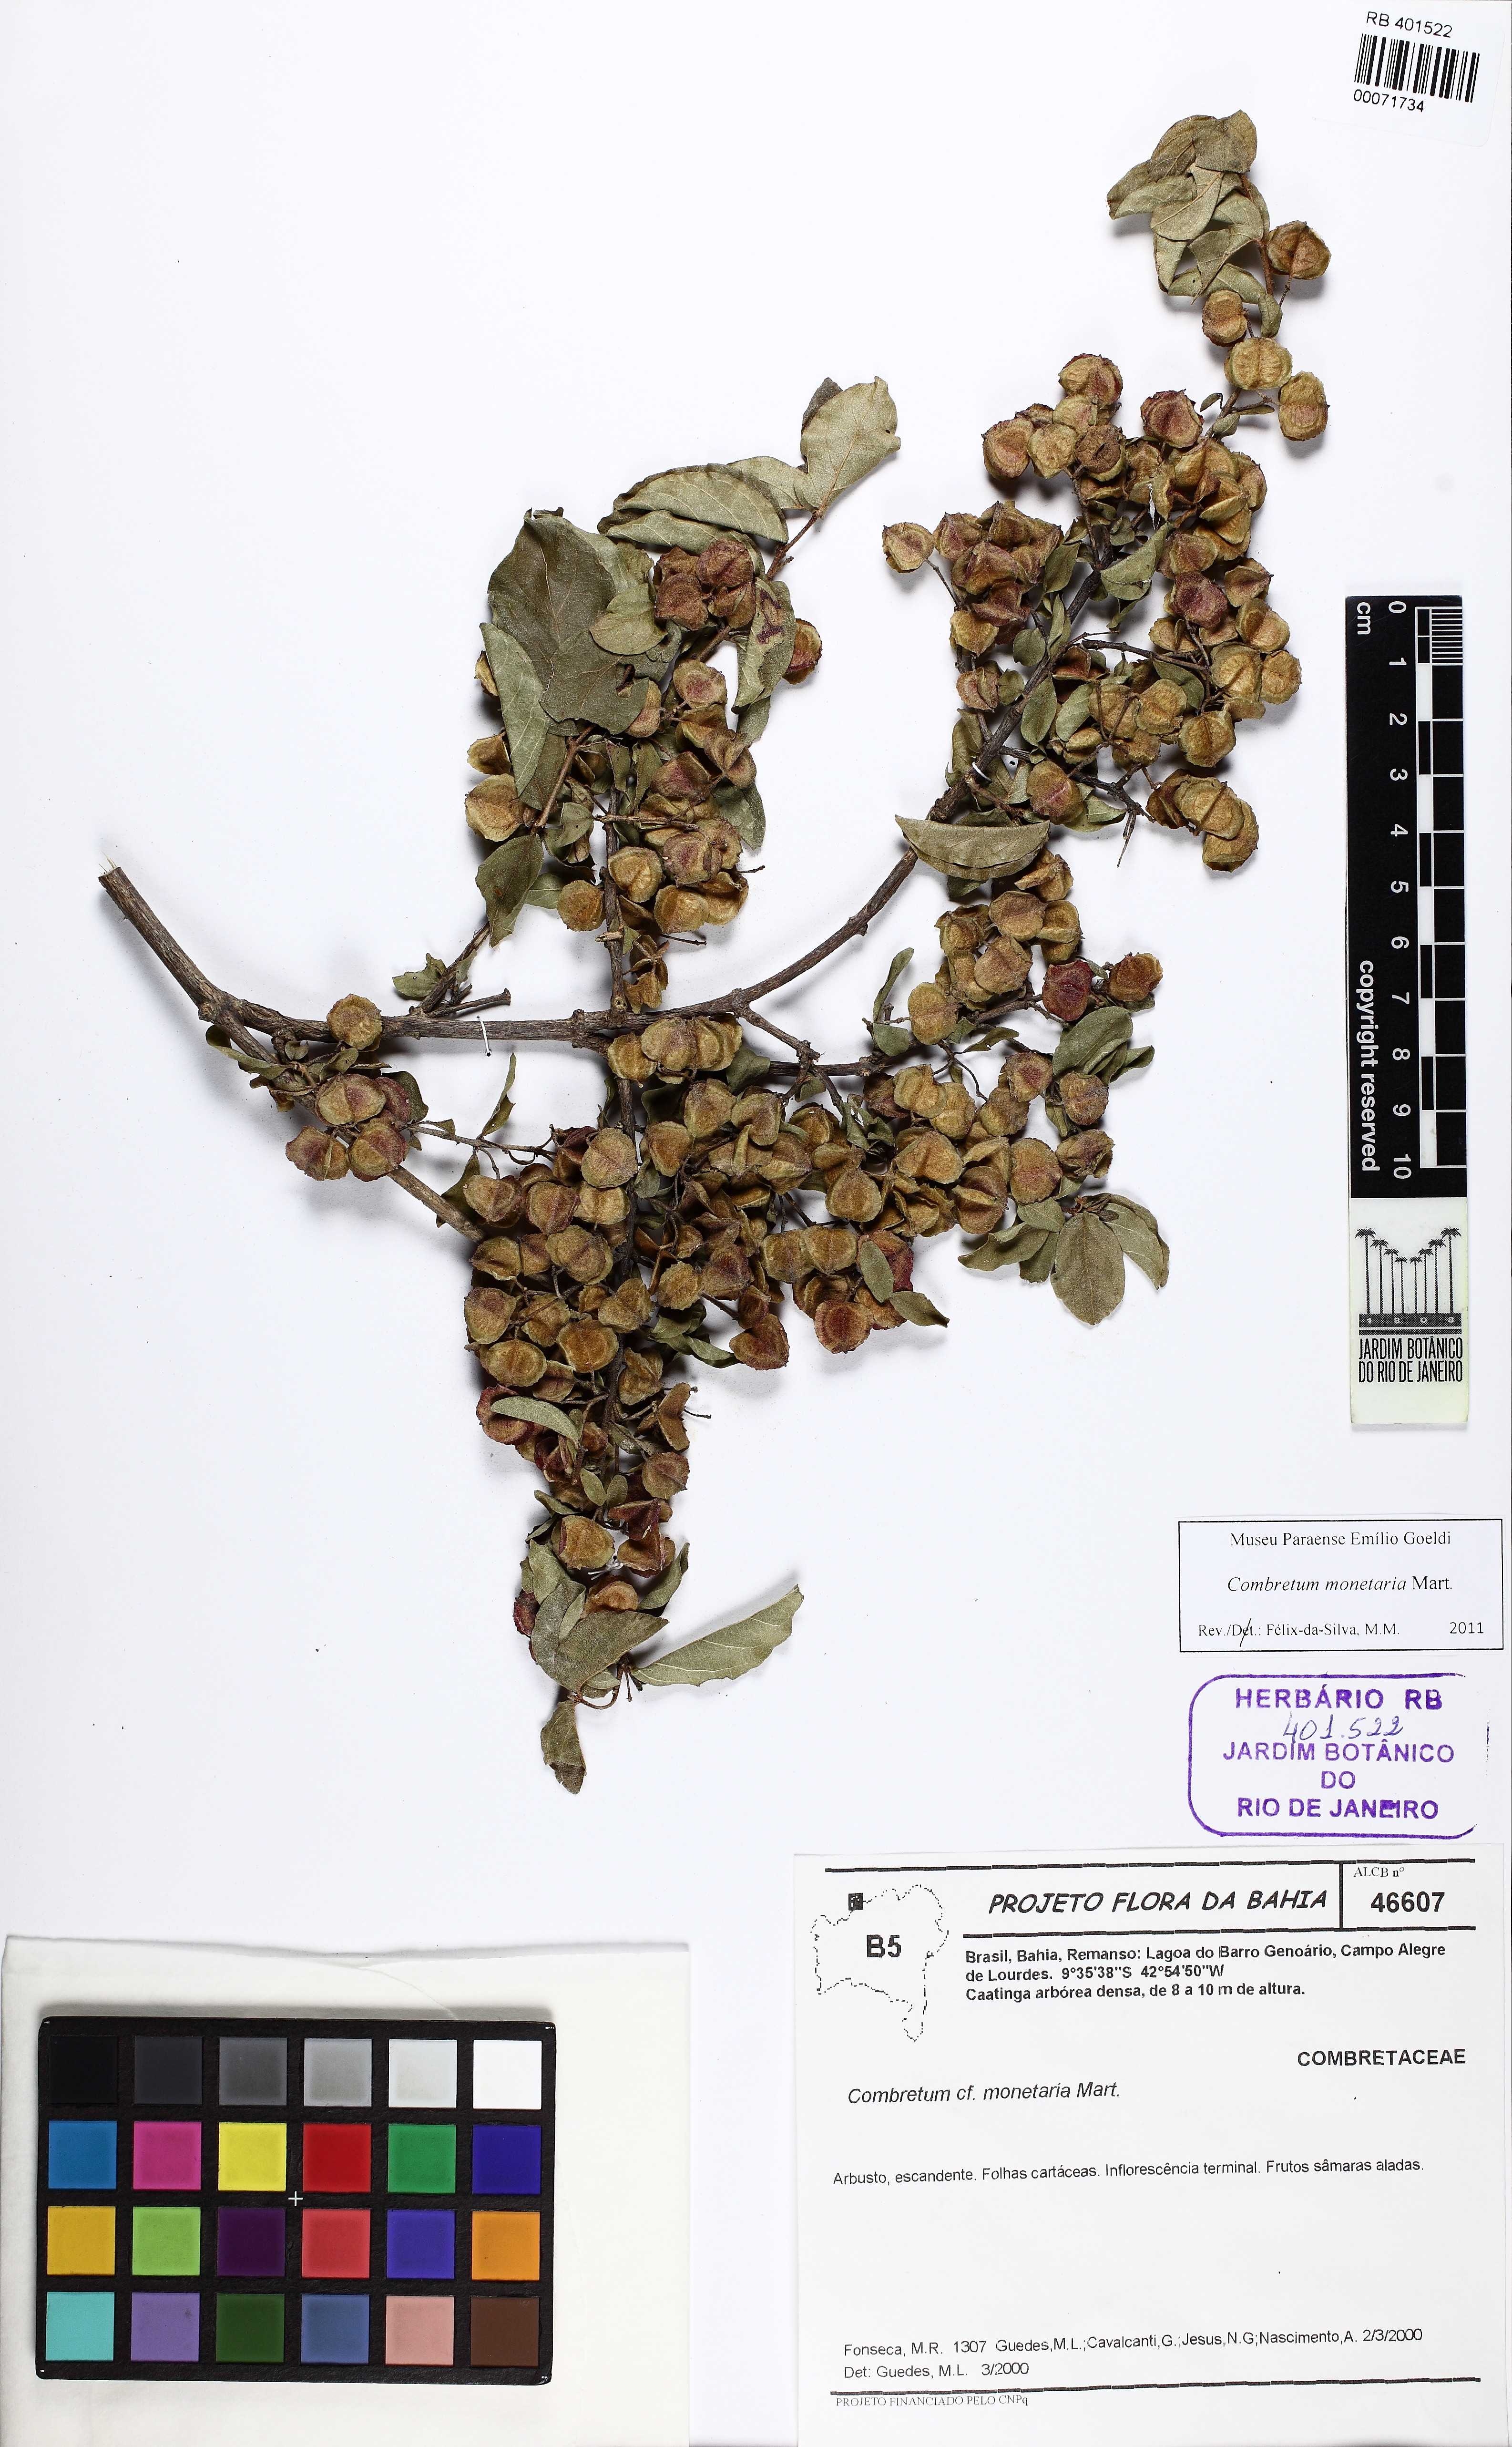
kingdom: Plantae
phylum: Tracheophyta
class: Magnoliopsida
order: Myrtales
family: Combretaceae
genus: Combretum
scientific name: Combretum monetaria
